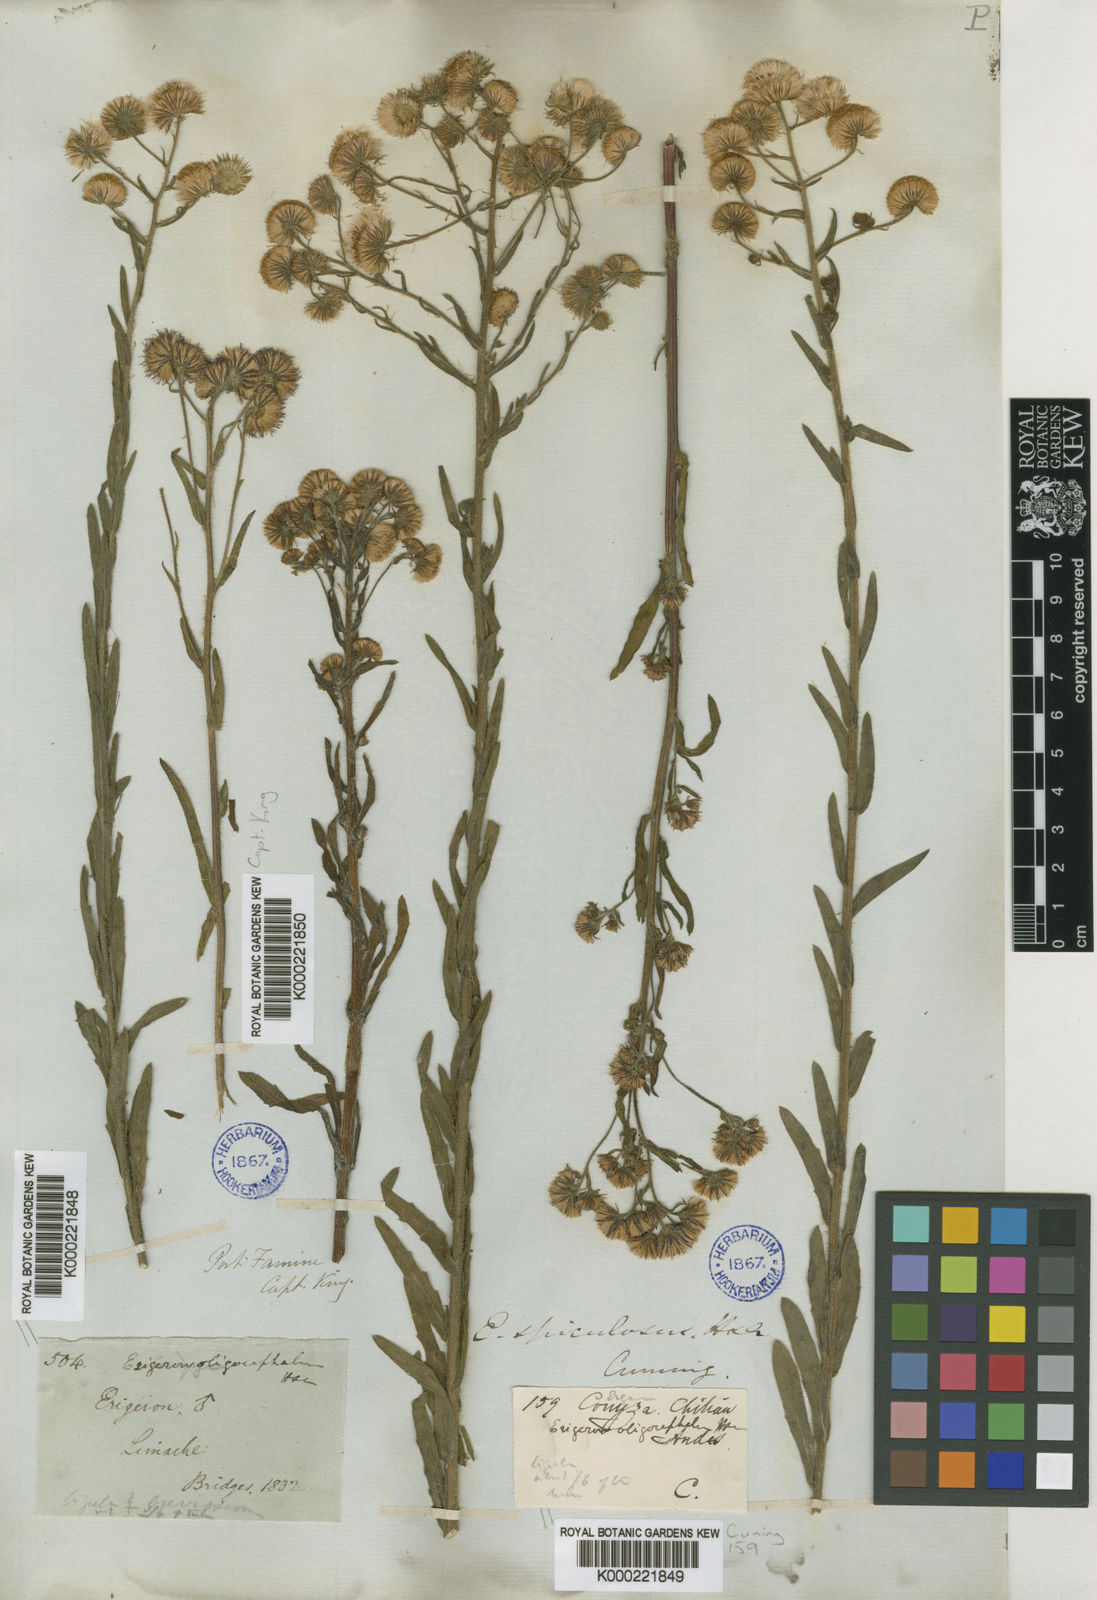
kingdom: Plantae
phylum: Tracheophyta
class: Magnoliopsida
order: Asterales
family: Asteraceae
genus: Erigeron
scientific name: Erigeron spiculosus
